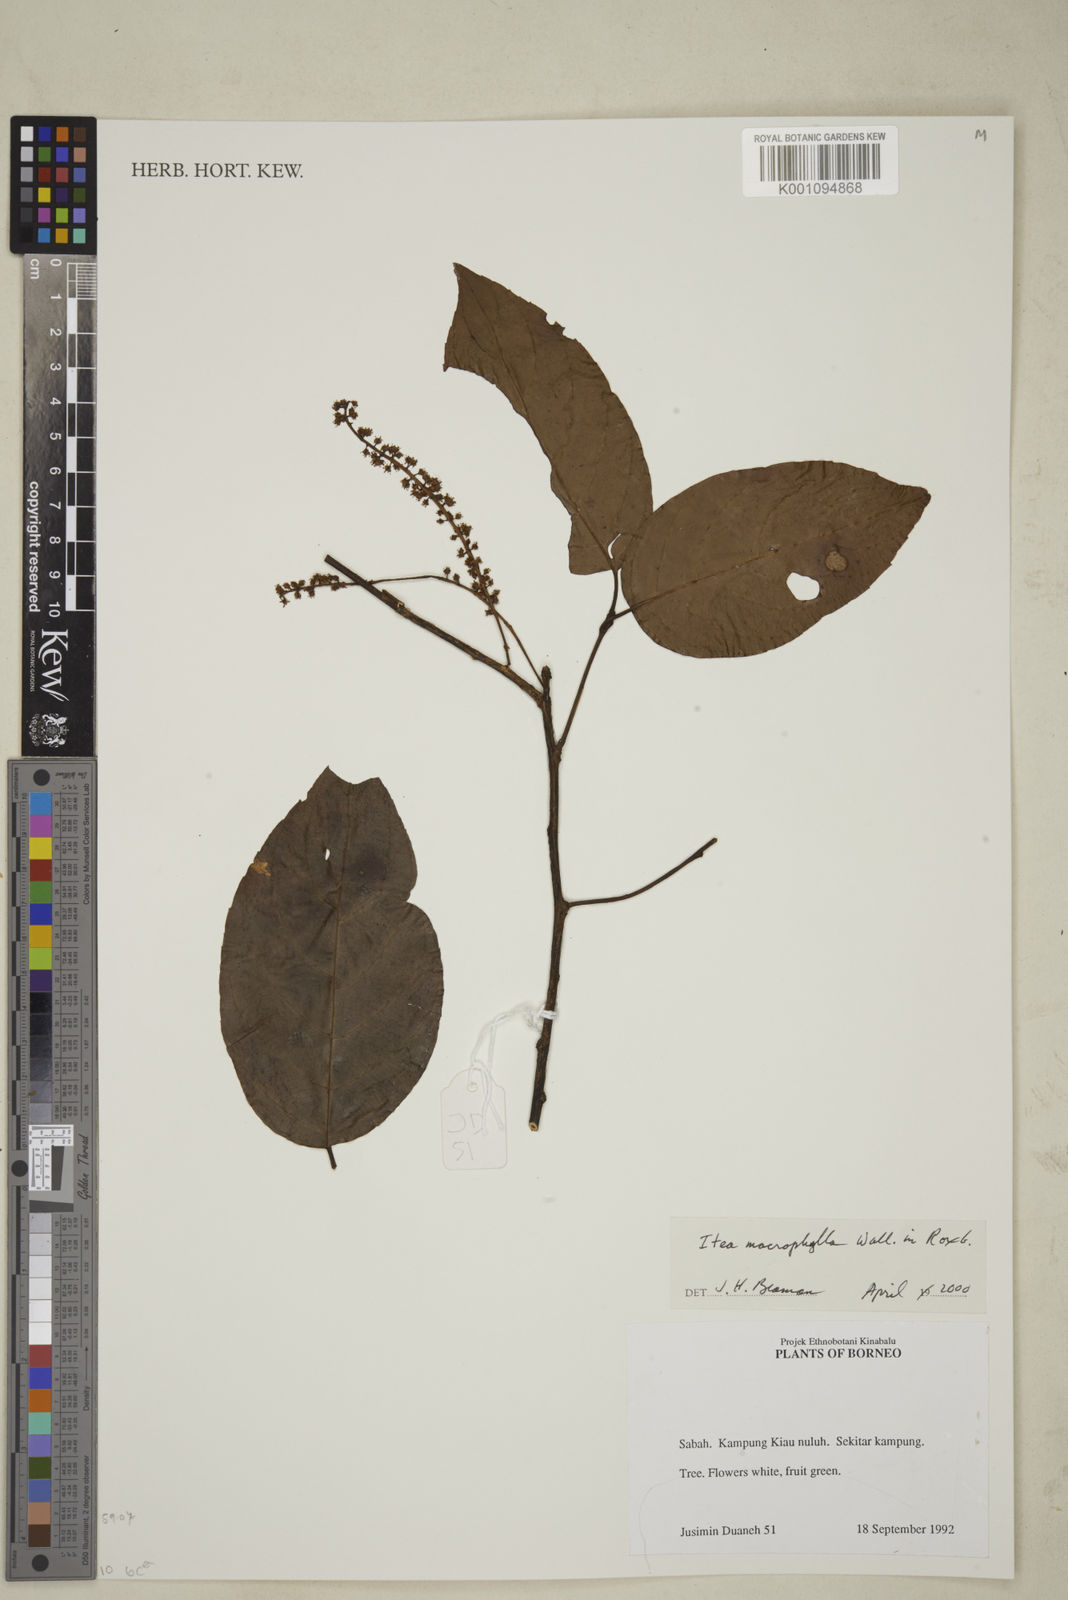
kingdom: Plantae
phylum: Tracheophyta
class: Magnoliopsida
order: Saxifragales
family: Iteaceae
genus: Itea
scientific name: Itea macrophylla
